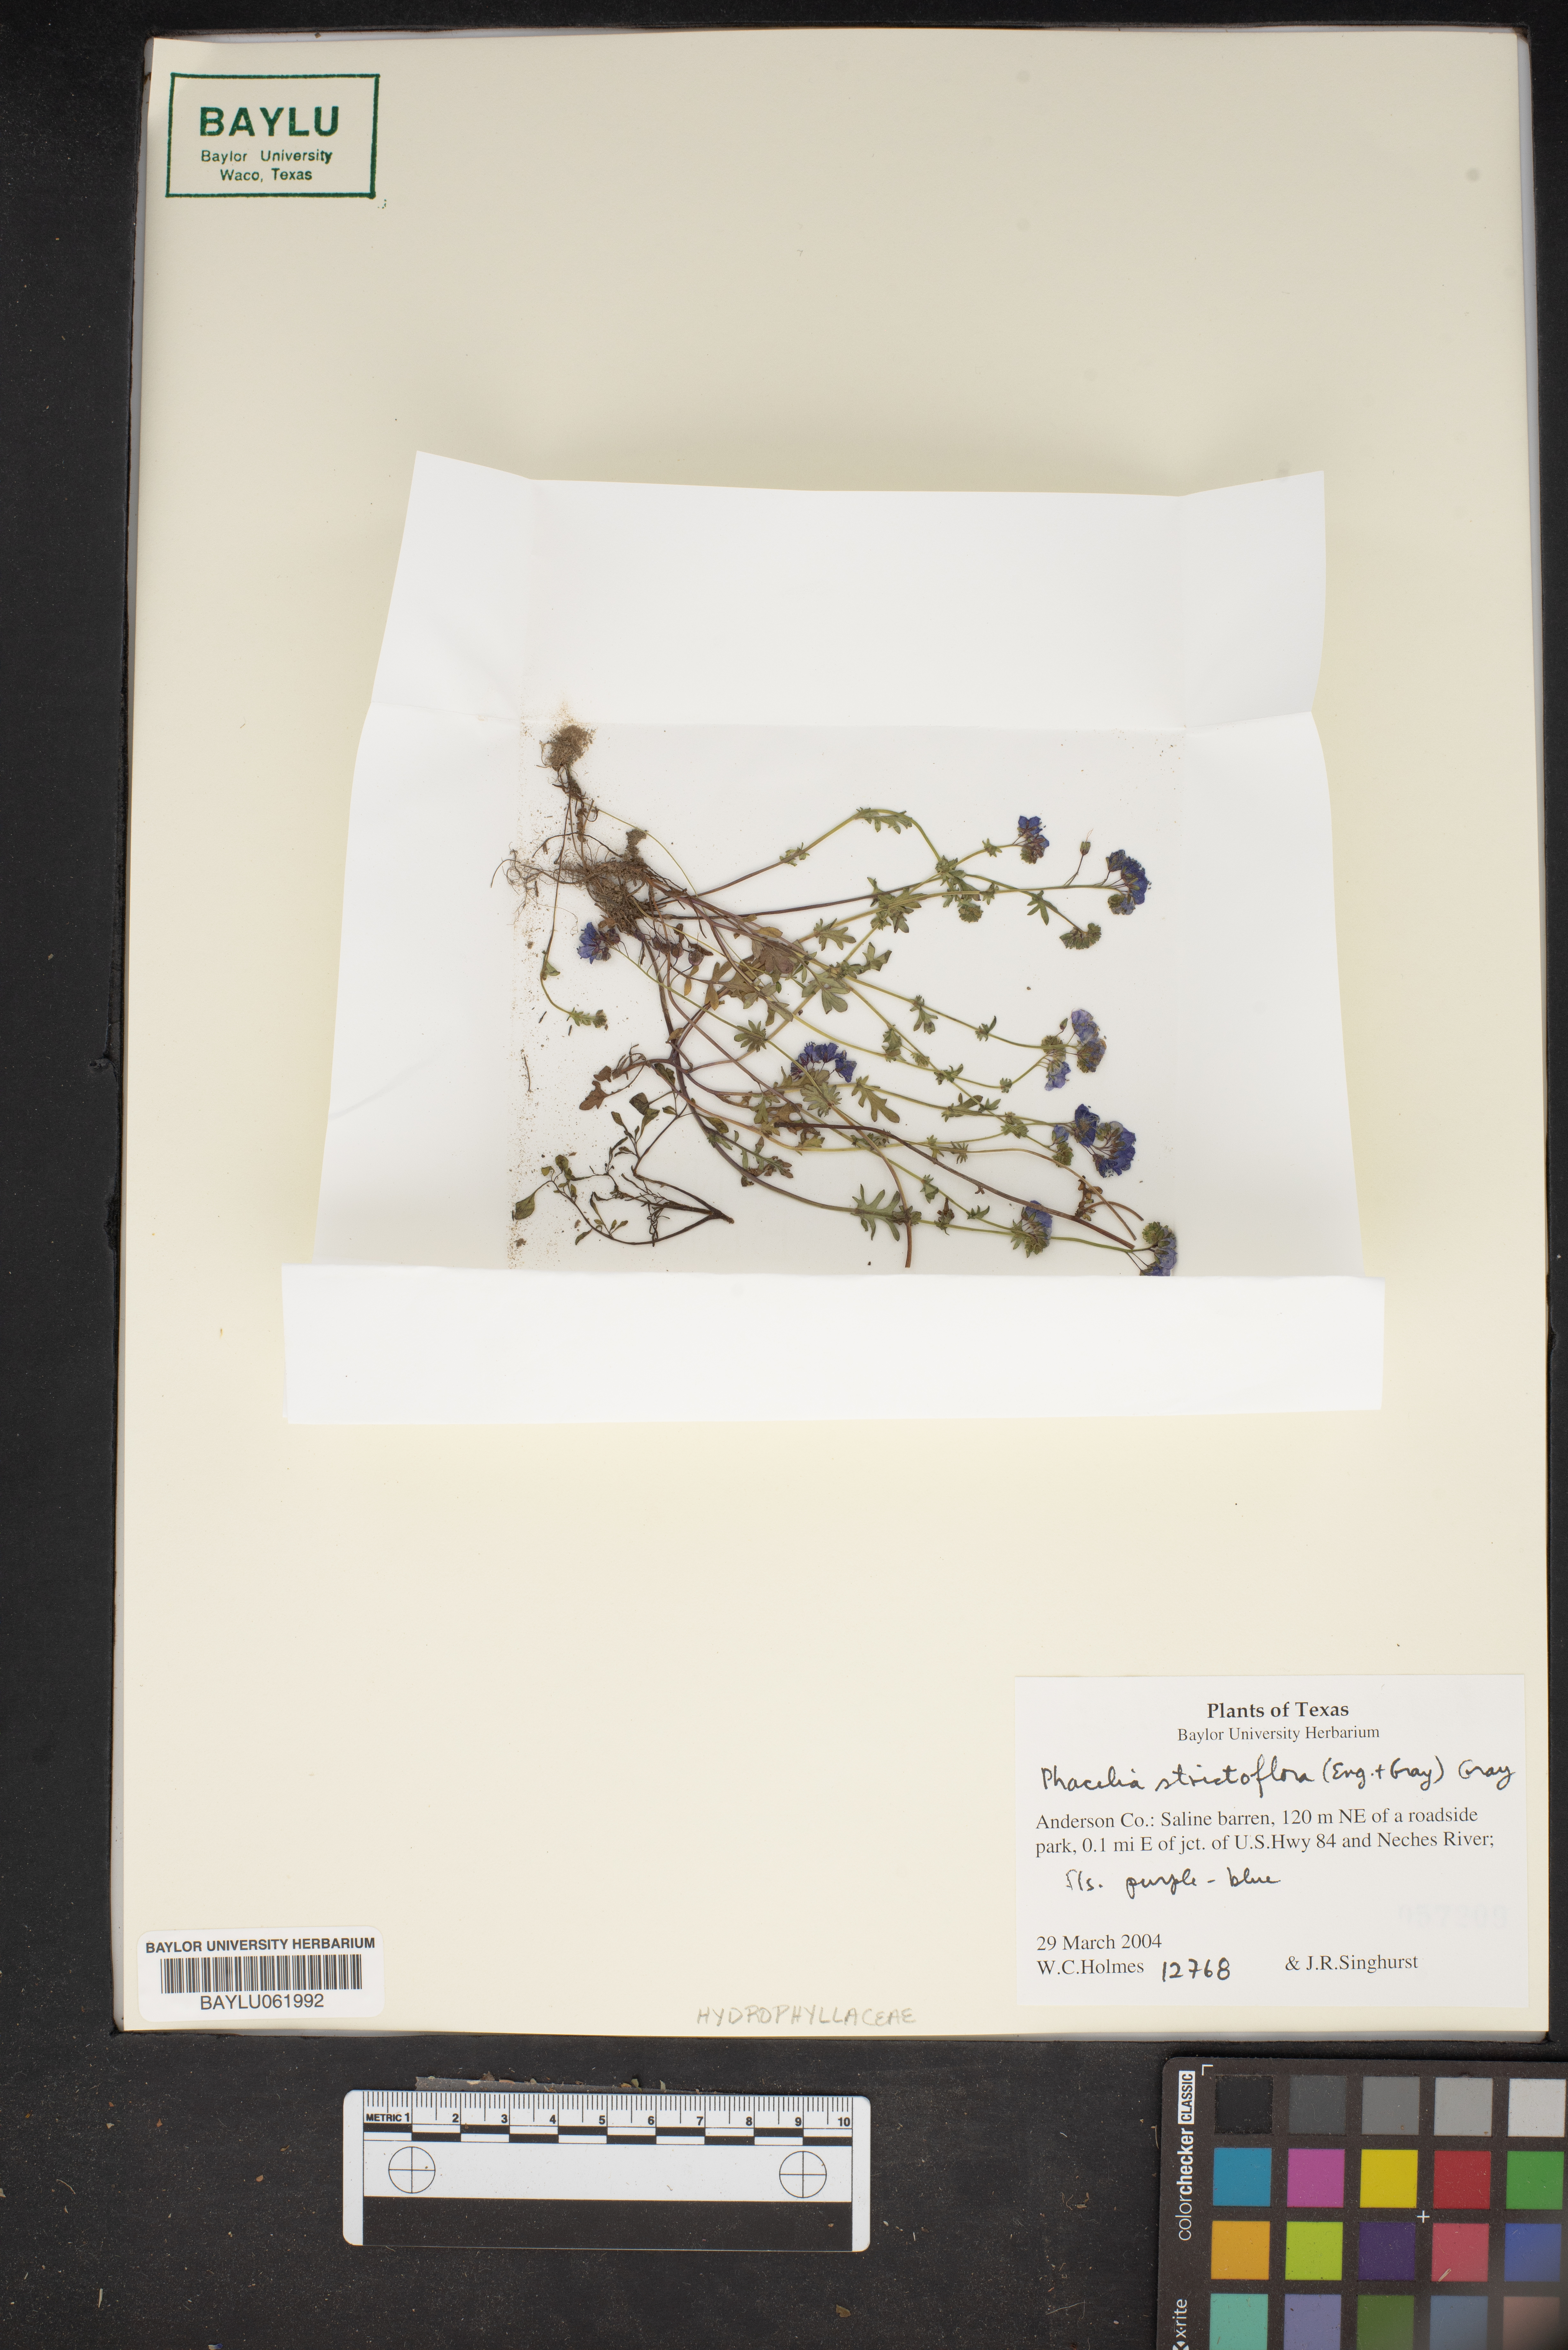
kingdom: Plantae
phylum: Tracheophyta
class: Magnoliopsida
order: Boraginales
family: Hydrophyllaceae
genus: Phacelia
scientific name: Phacelia strictiflora
